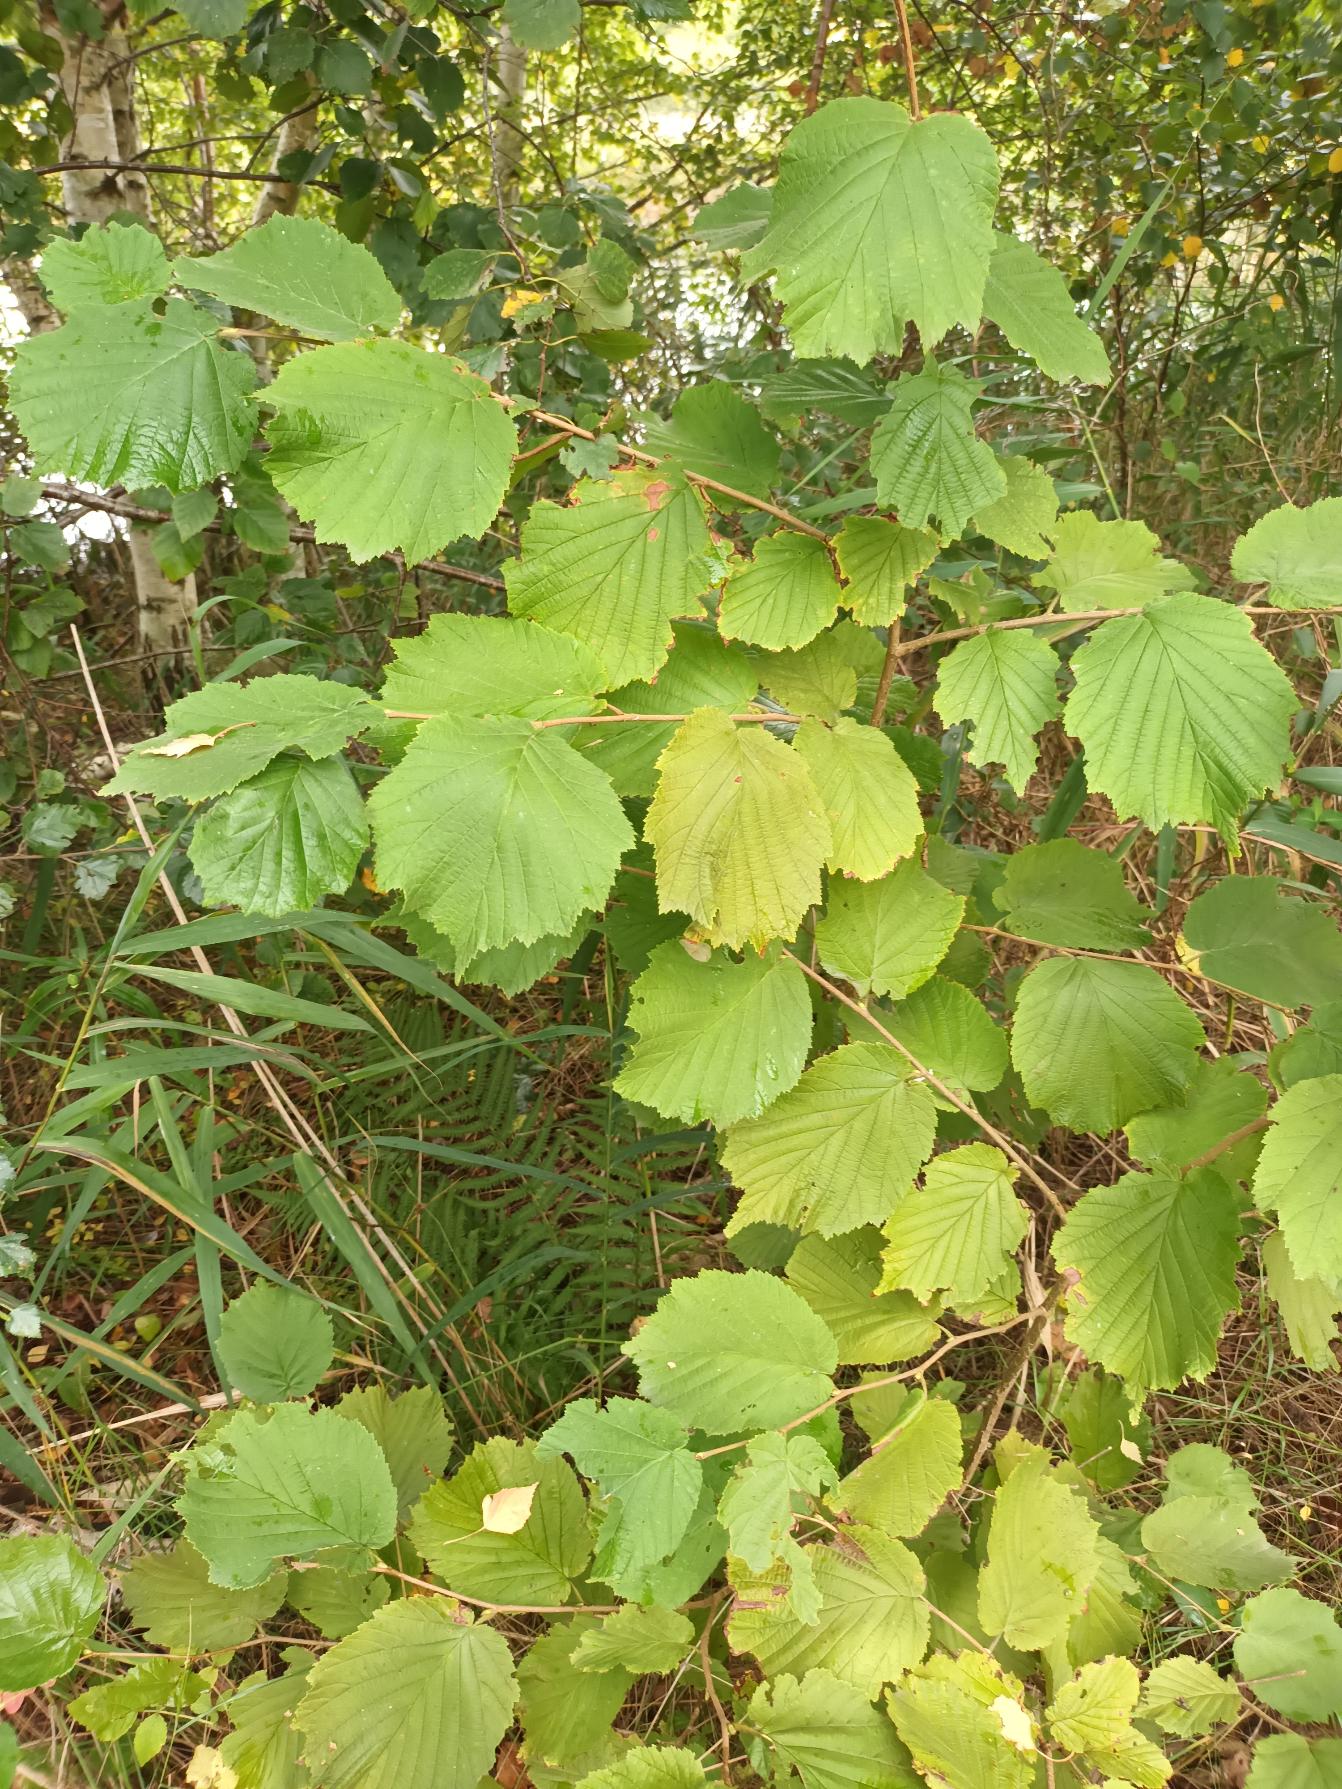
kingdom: Plantae
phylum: Tracheophyta
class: Magnoliopsida
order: Fagales
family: Betulaceae
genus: Corylus
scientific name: Corylus avellana
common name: Hassel
